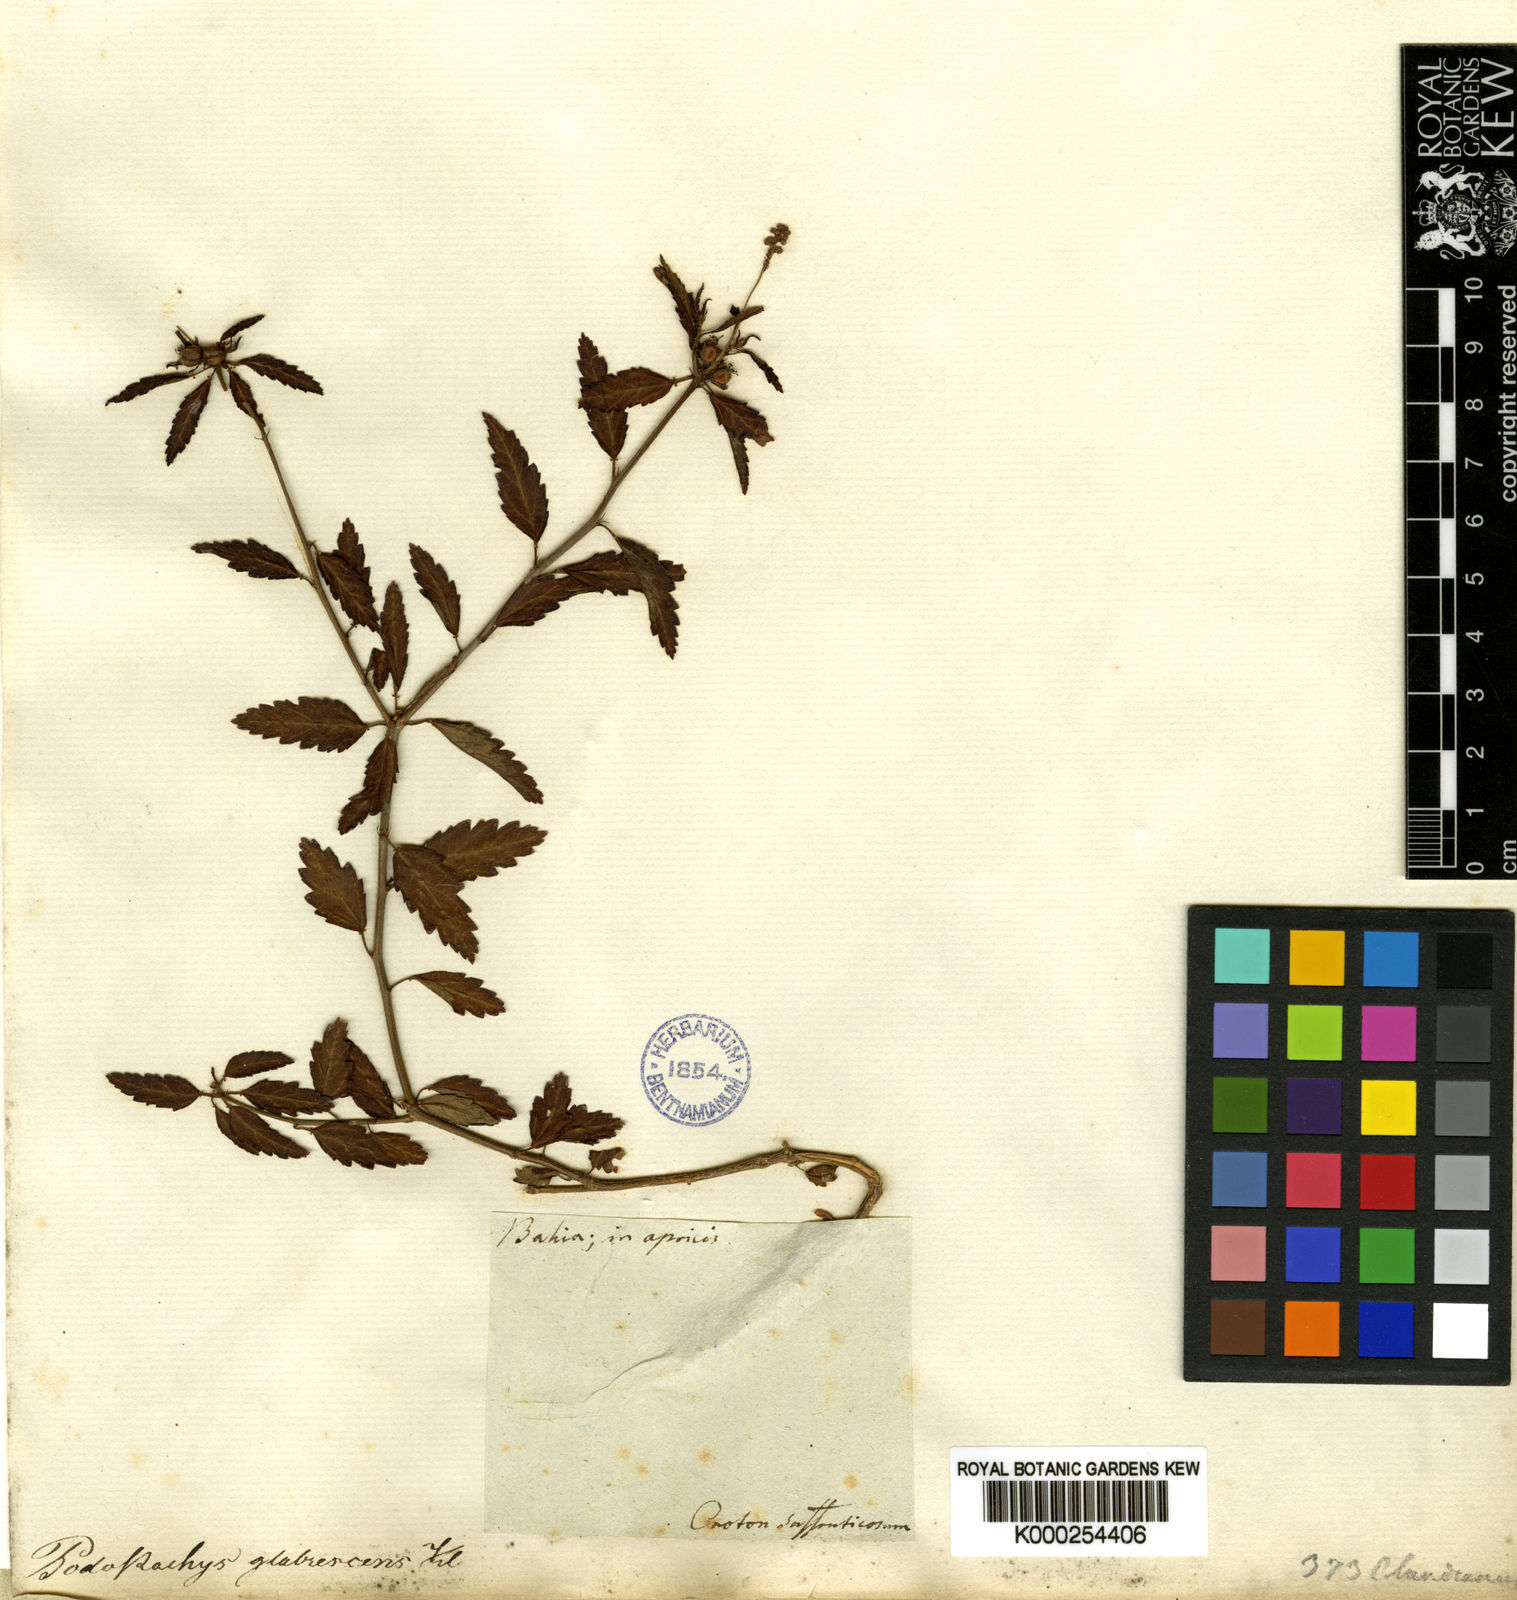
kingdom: Plantae
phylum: Tracheophyta
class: Magnoliopsida
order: Malpighiales
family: Euphorbiaceae
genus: Croton
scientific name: Croton
